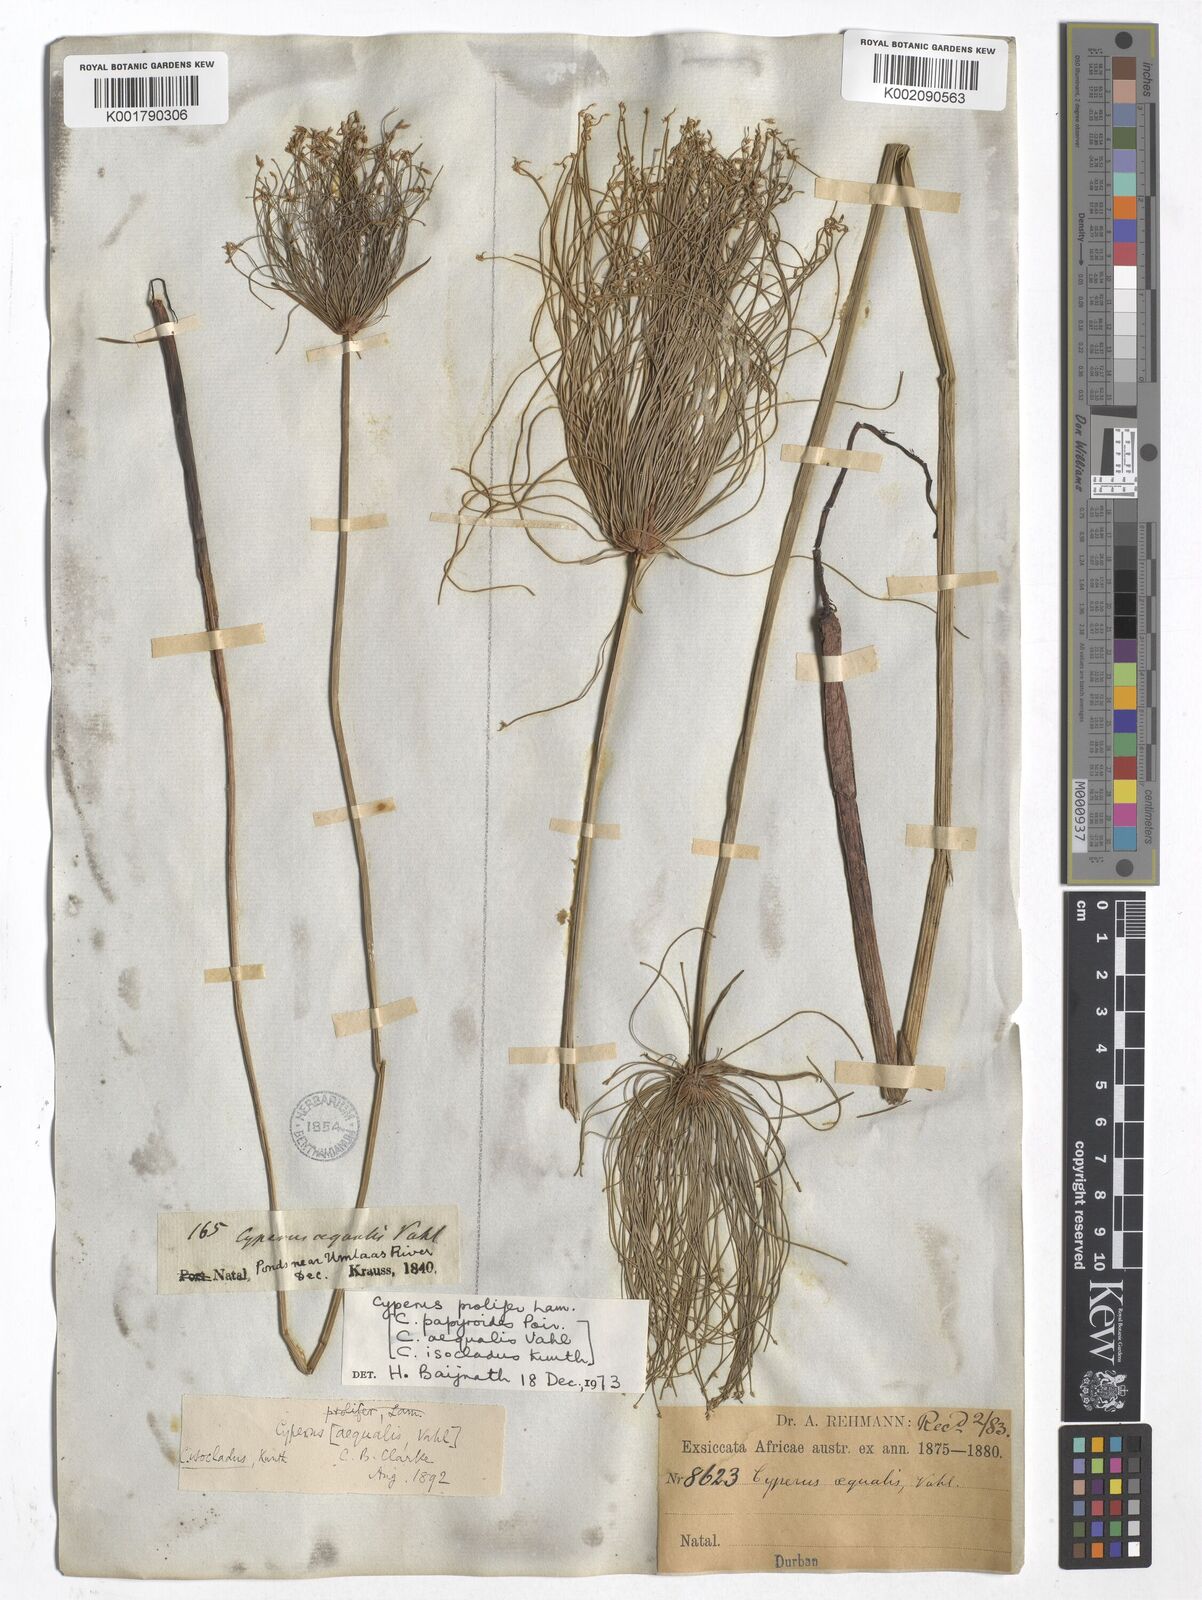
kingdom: Plantae
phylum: Tracheophyta
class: Liliopsida
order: Poales
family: Cyperaceae
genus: Cyperus
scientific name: Cyperus prolifer
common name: Miniature flatsedge
